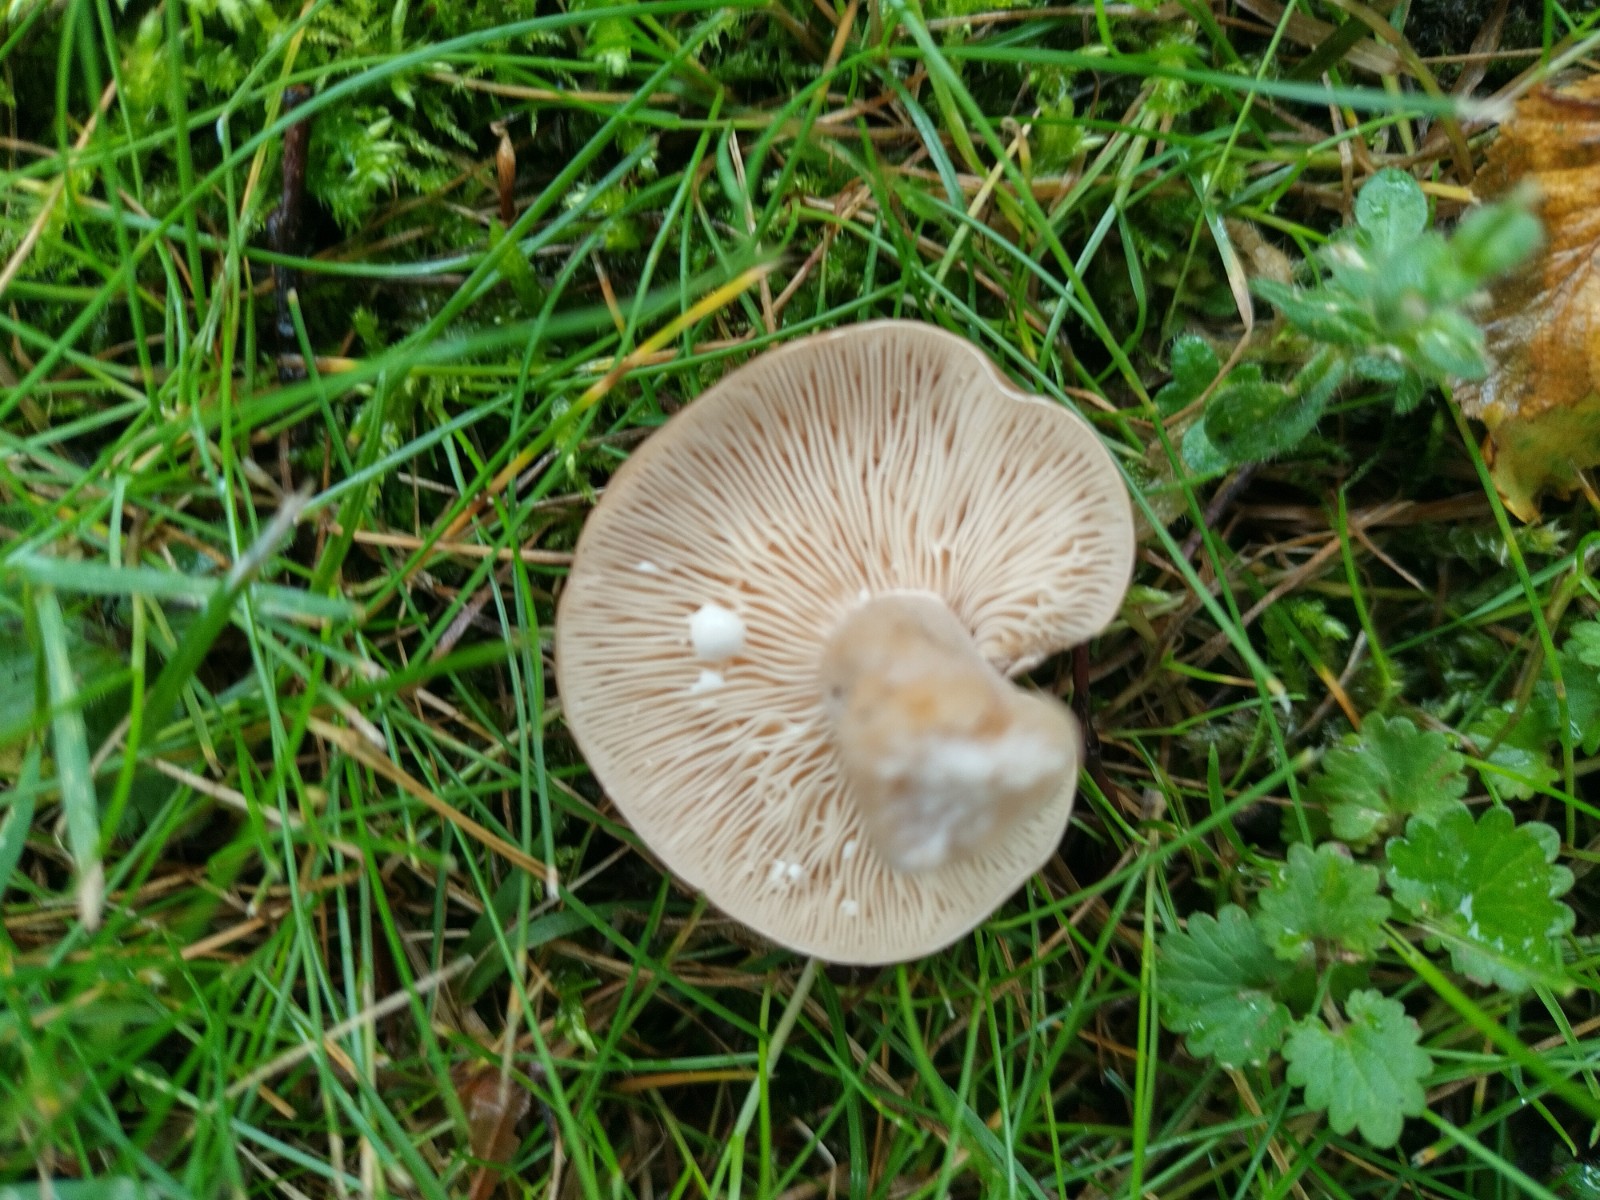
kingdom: Fungi
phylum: Basidiomycota
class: Agaricomycetes
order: Russulales
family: Russulaceae
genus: Lactarius
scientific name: Lactarius circellatus
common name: avnbøg-mælkehat
